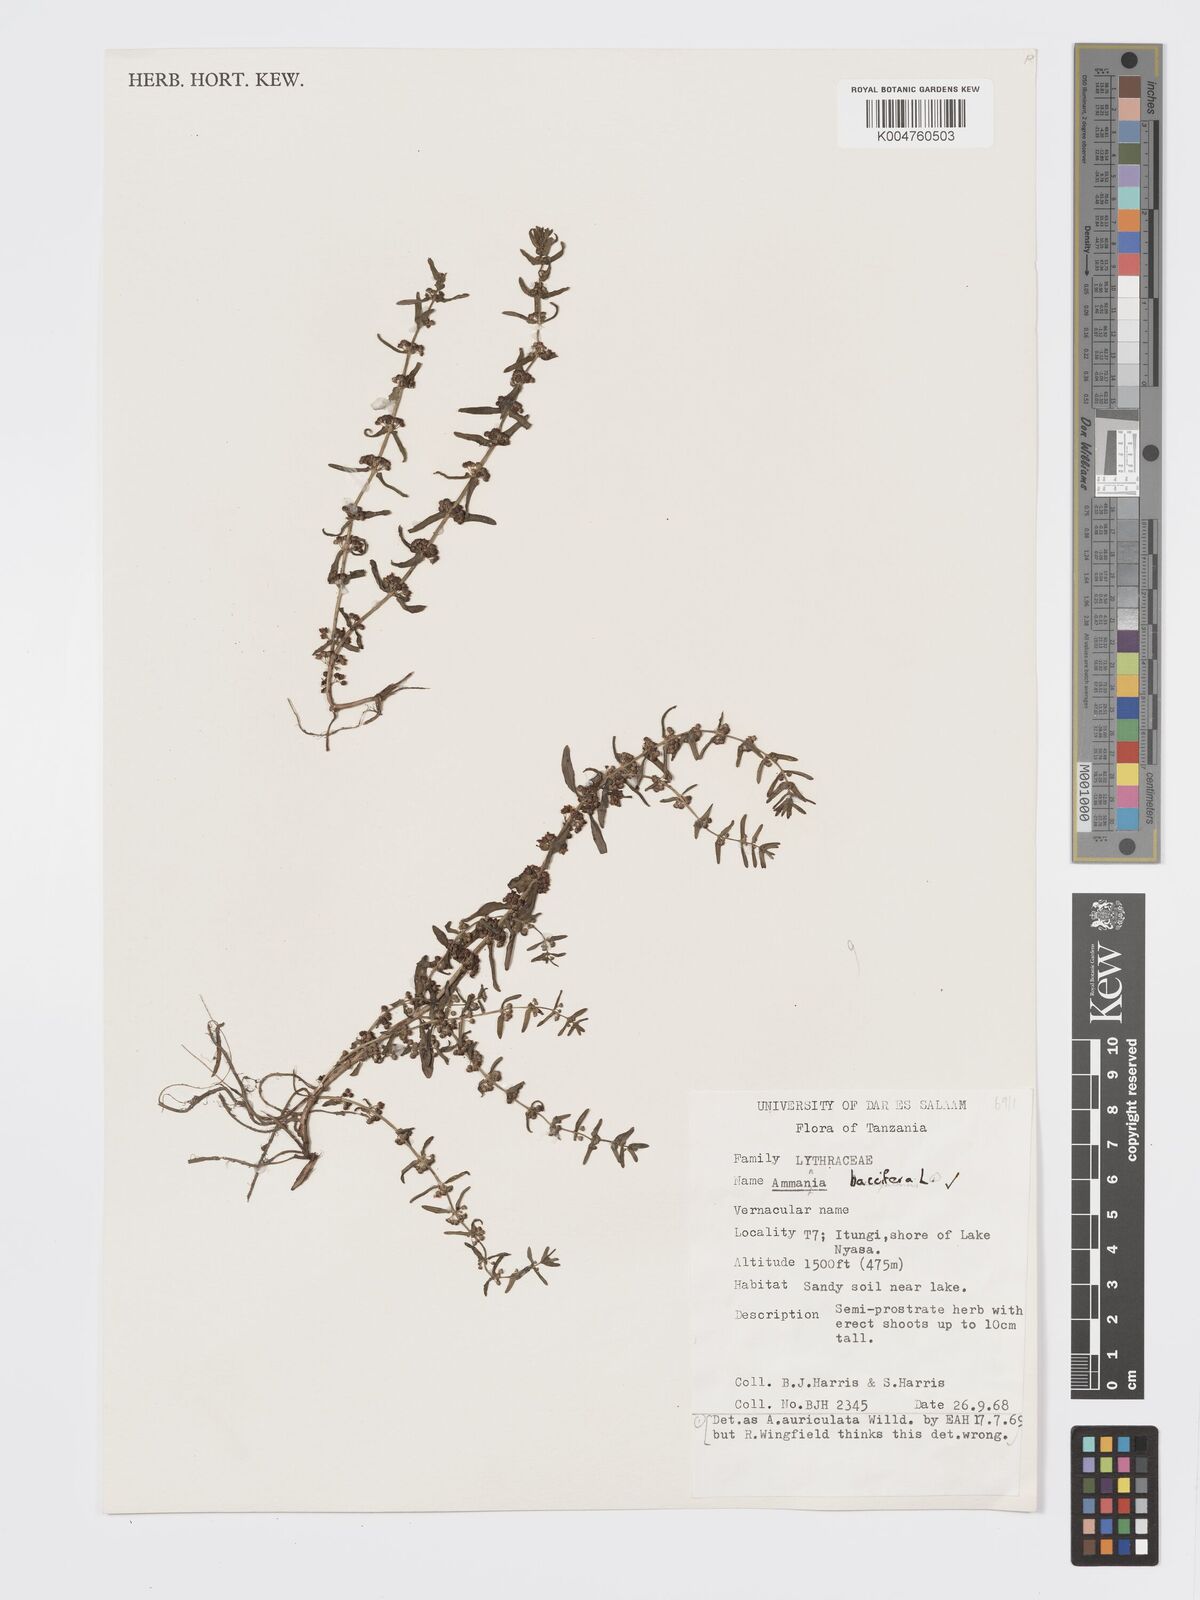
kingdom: Plantae
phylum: Tracheophyta
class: Magnoliopsida
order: Myrtales
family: Lythraceae
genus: Ammannia
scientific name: Ammannia
